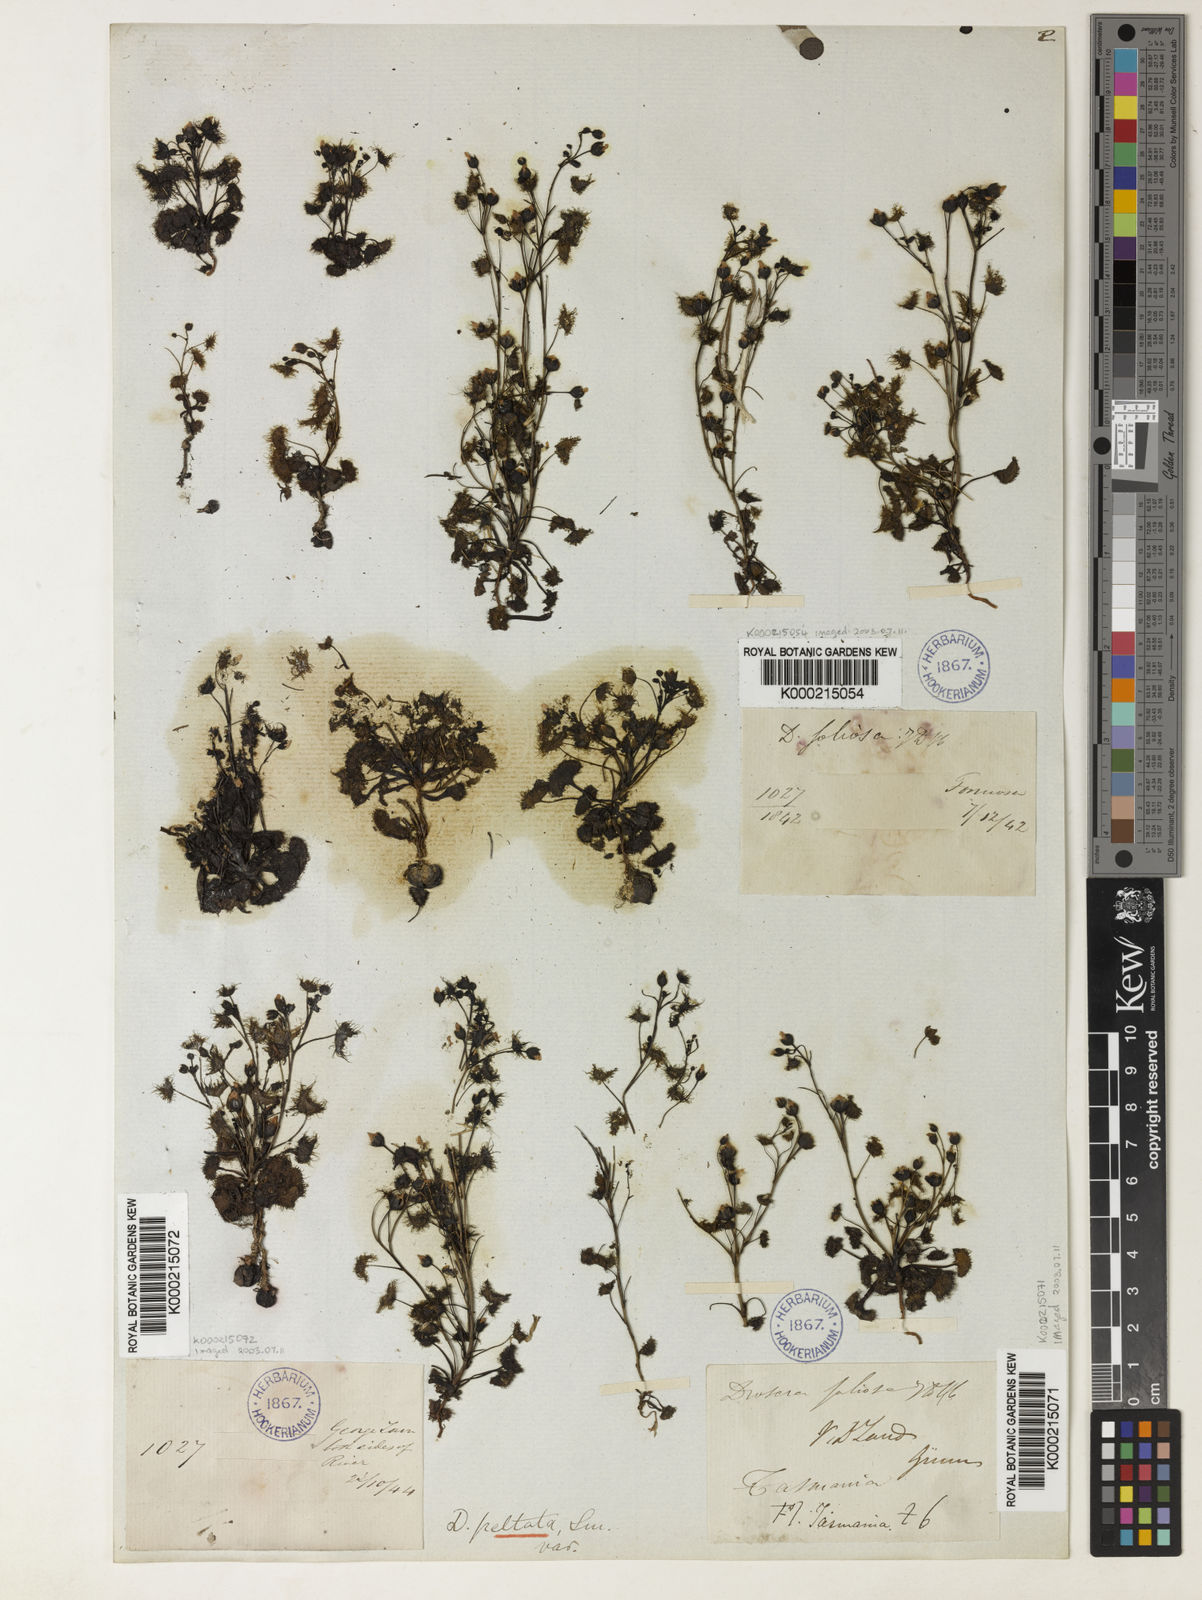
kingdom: Plantae
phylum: Tracheophyta
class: Magnoliopsida
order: Caryophyllales
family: Droseraceae
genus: Drosera
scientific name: Drosera hookeri
